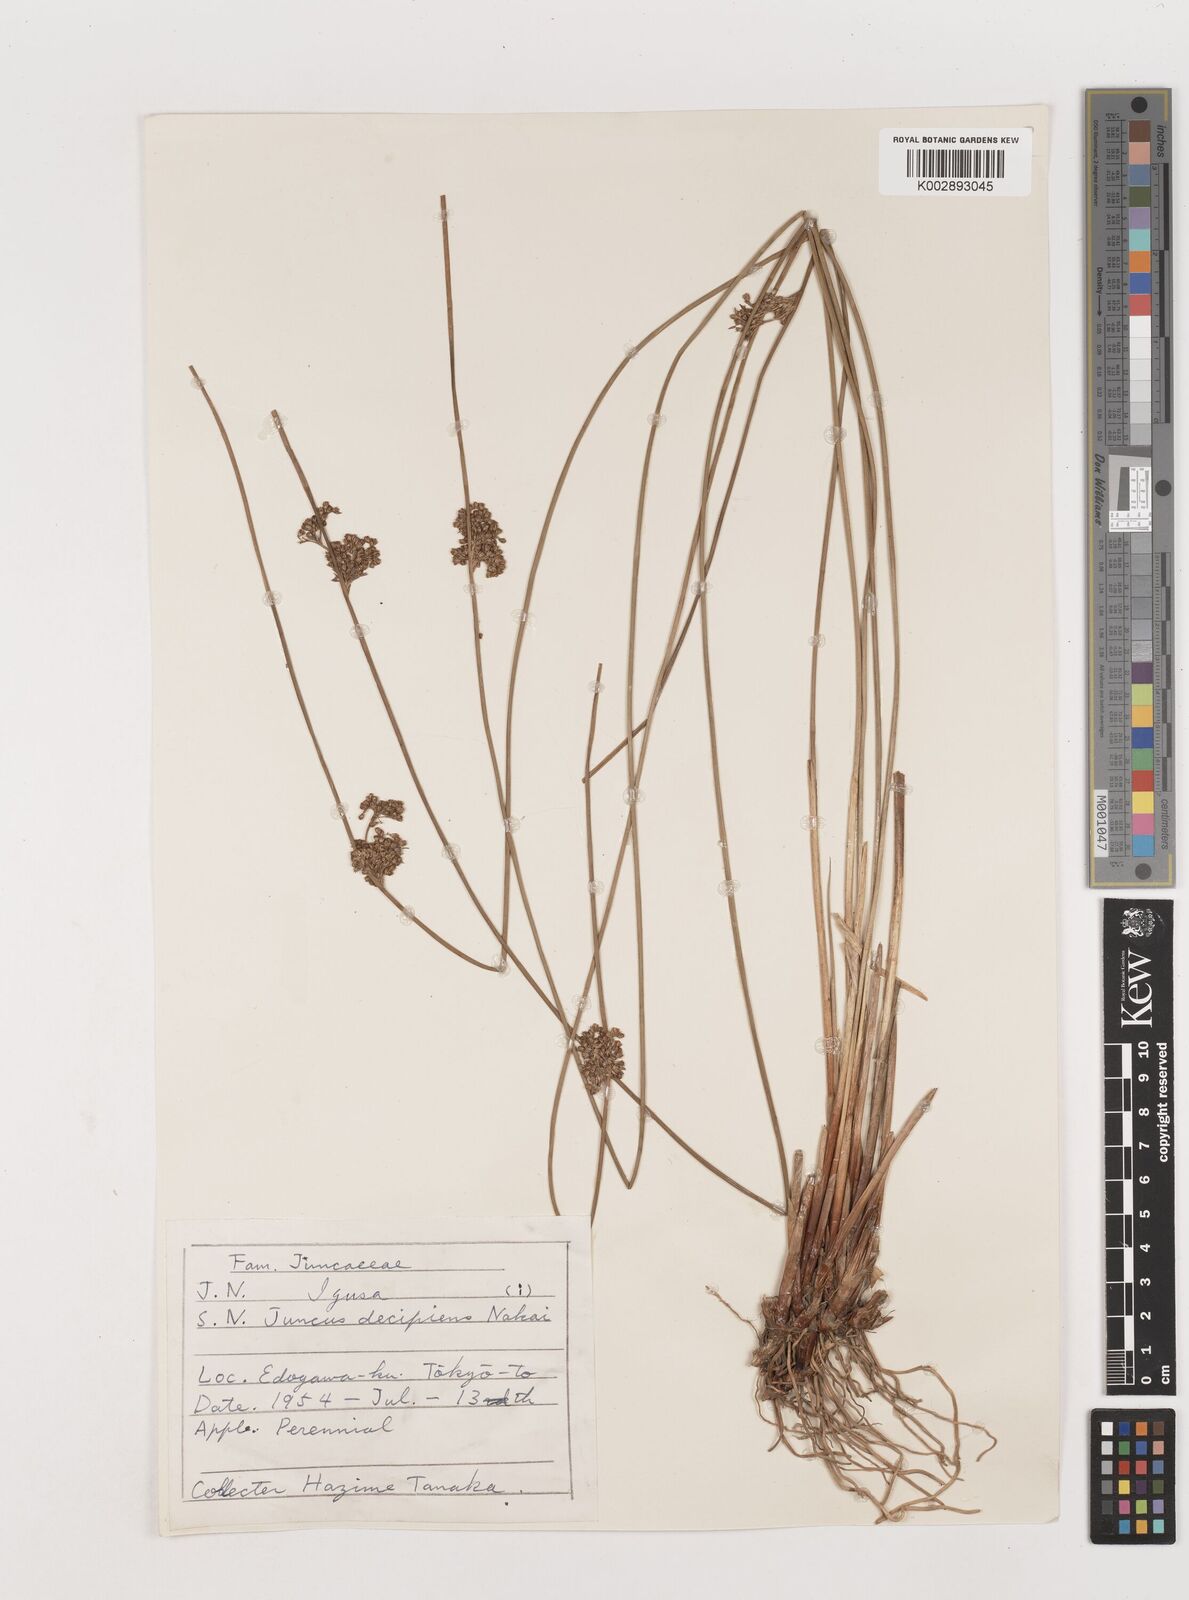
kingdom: Plantae
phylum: Tracheophyta
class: Liliopsida
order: Poales
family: Juncaceae
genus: Juncus
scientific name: Juncus decipiens
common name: Lamp rush
